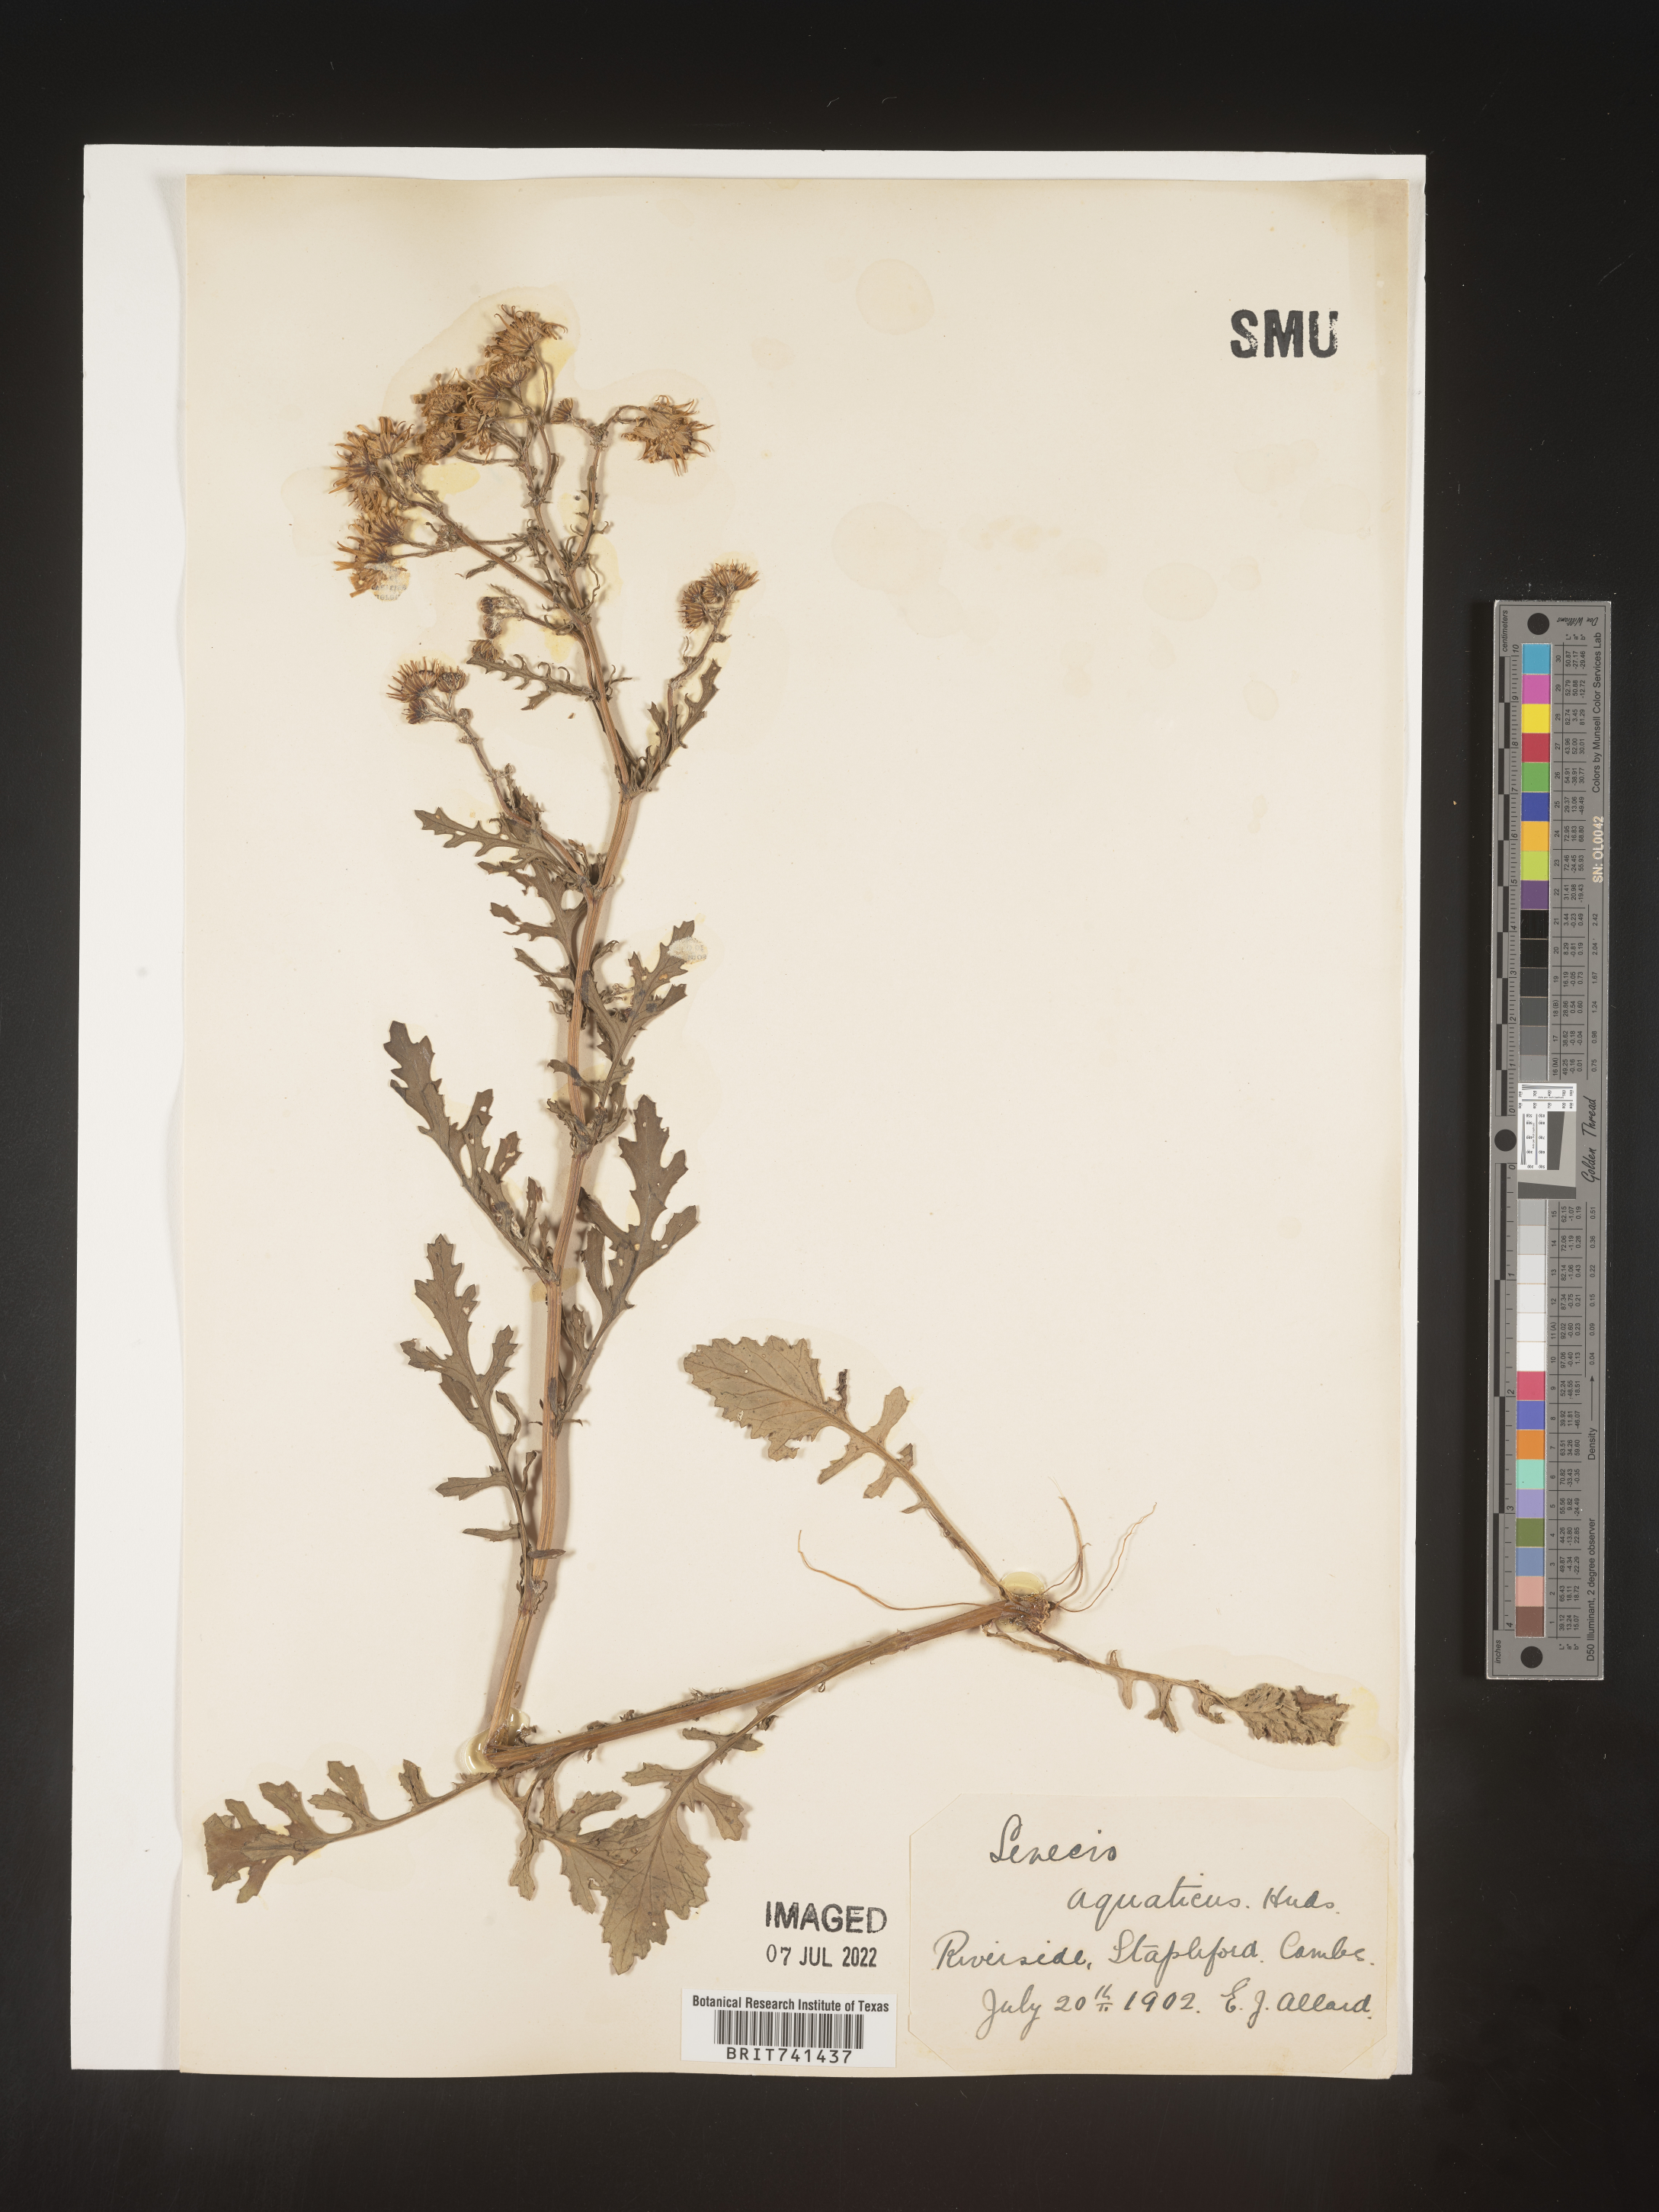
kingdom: Plantae
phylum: Tracheophyta
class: Magnoliopsida
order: Asterales
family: Asteraceae
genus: Senecio
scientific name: Senecio
